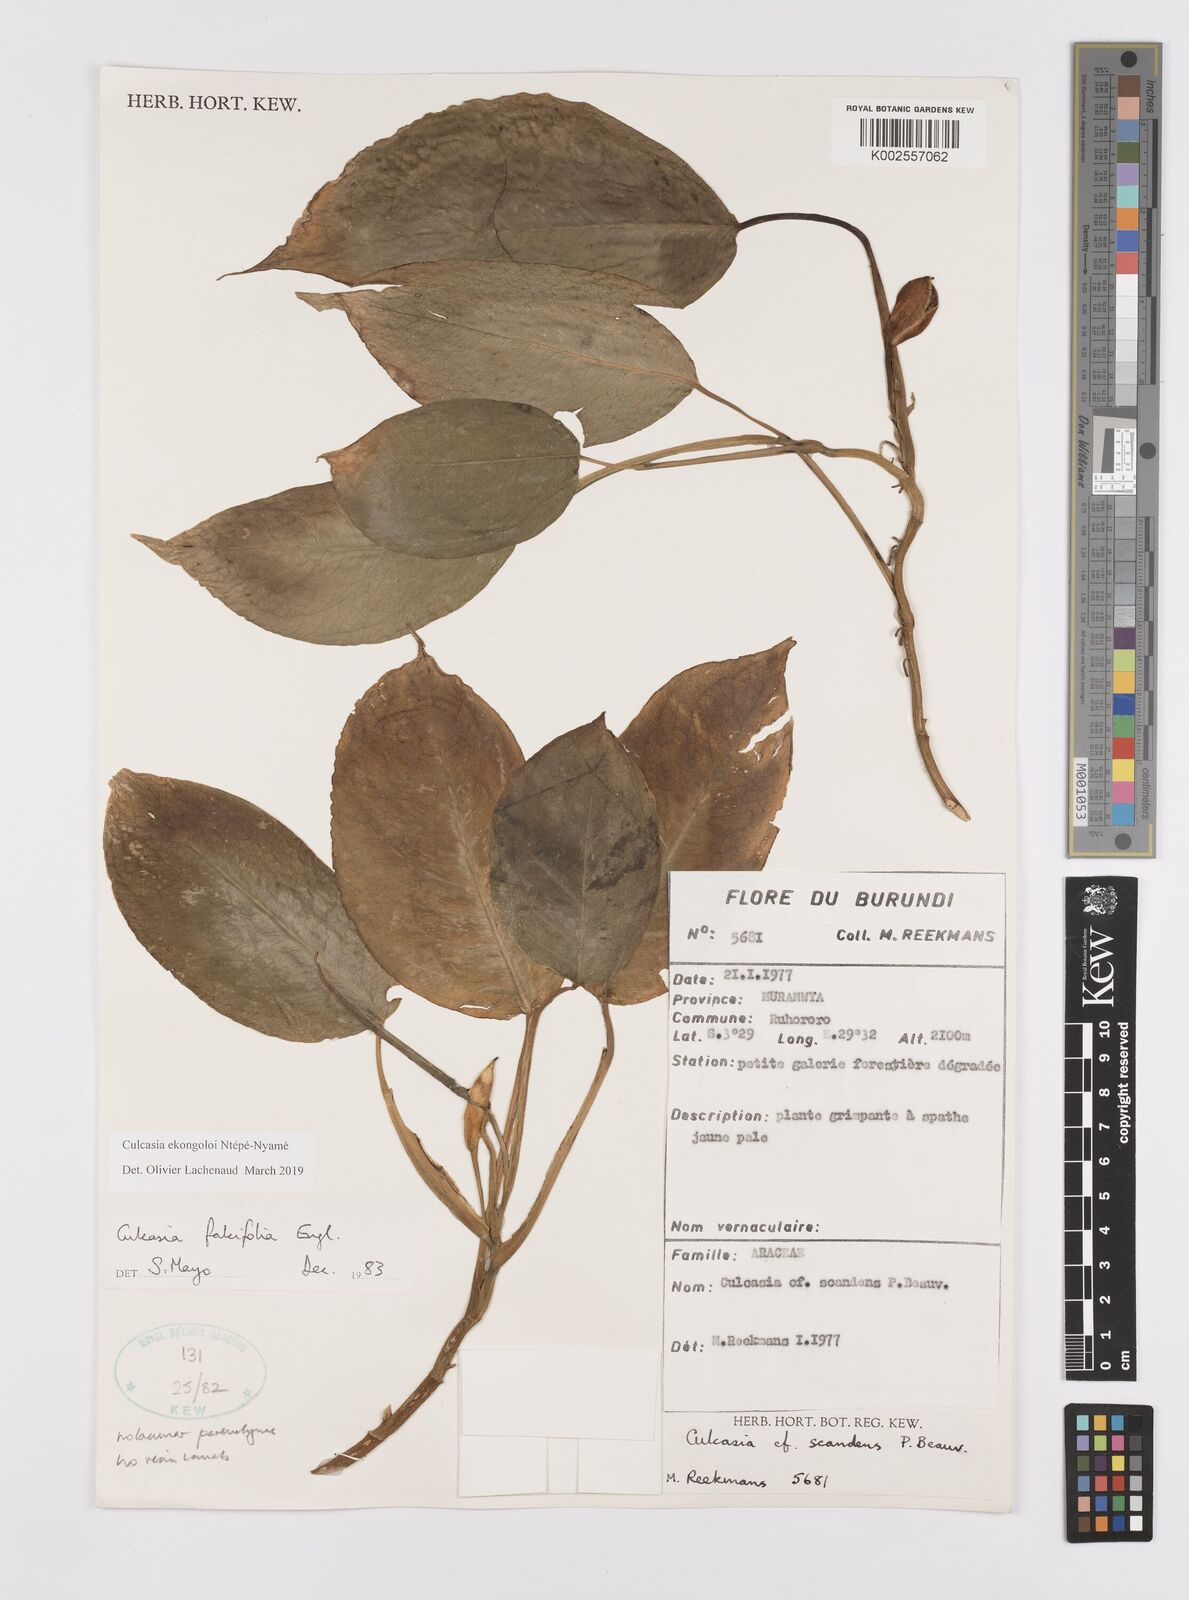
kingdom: Plantae
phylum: Tracheophyta
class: Liliopsida
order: Alismatales
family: Araceae
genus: Culcasia
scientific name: Culcasia ekongoloi
